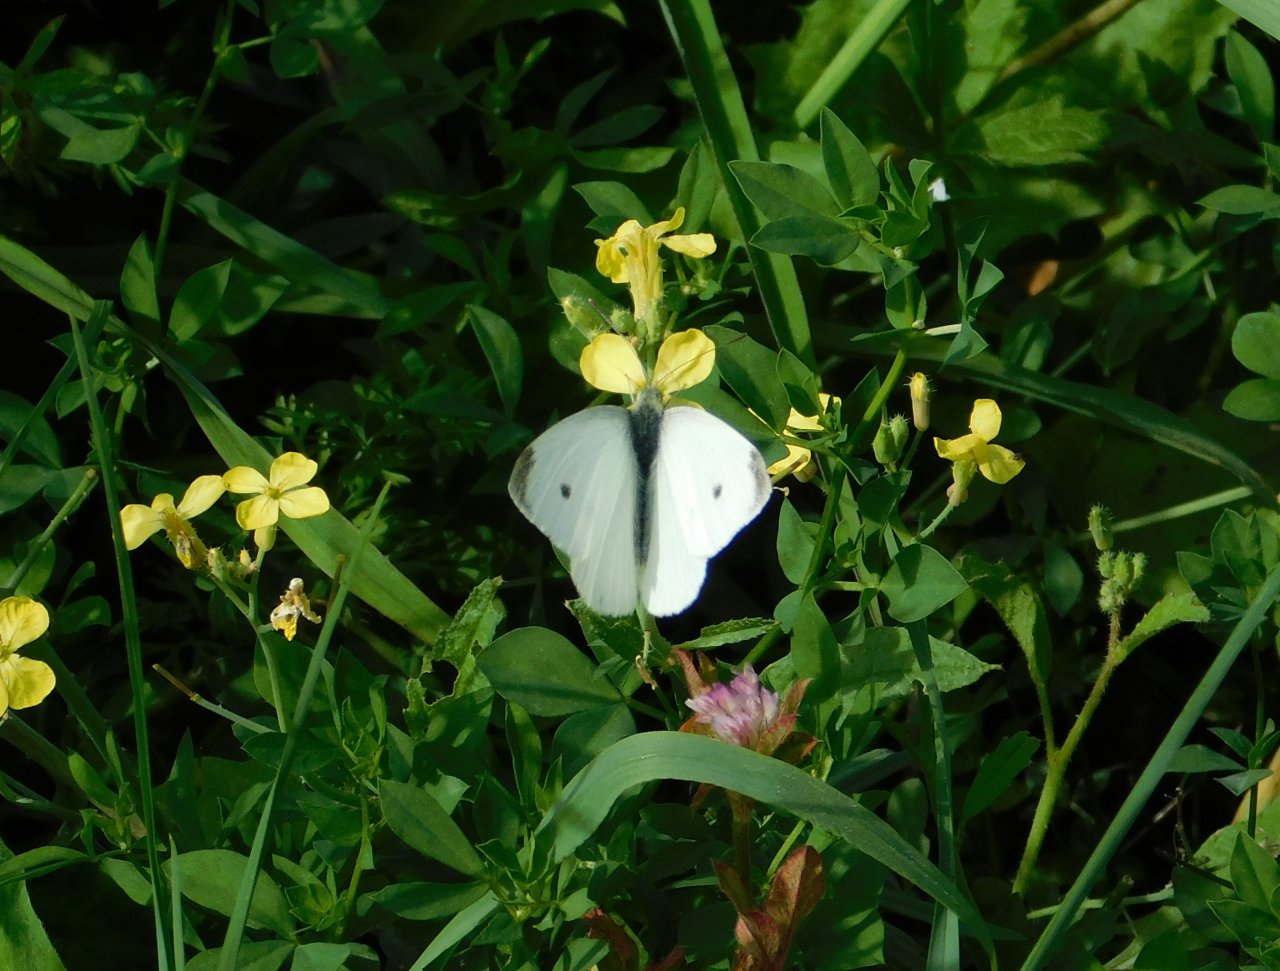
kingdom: Animalia
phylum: Arthropoda
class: Insecta
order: Lepidoptera
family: Pieridae
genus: Pieris
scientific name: Pieris rapae
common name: Cabbage White
